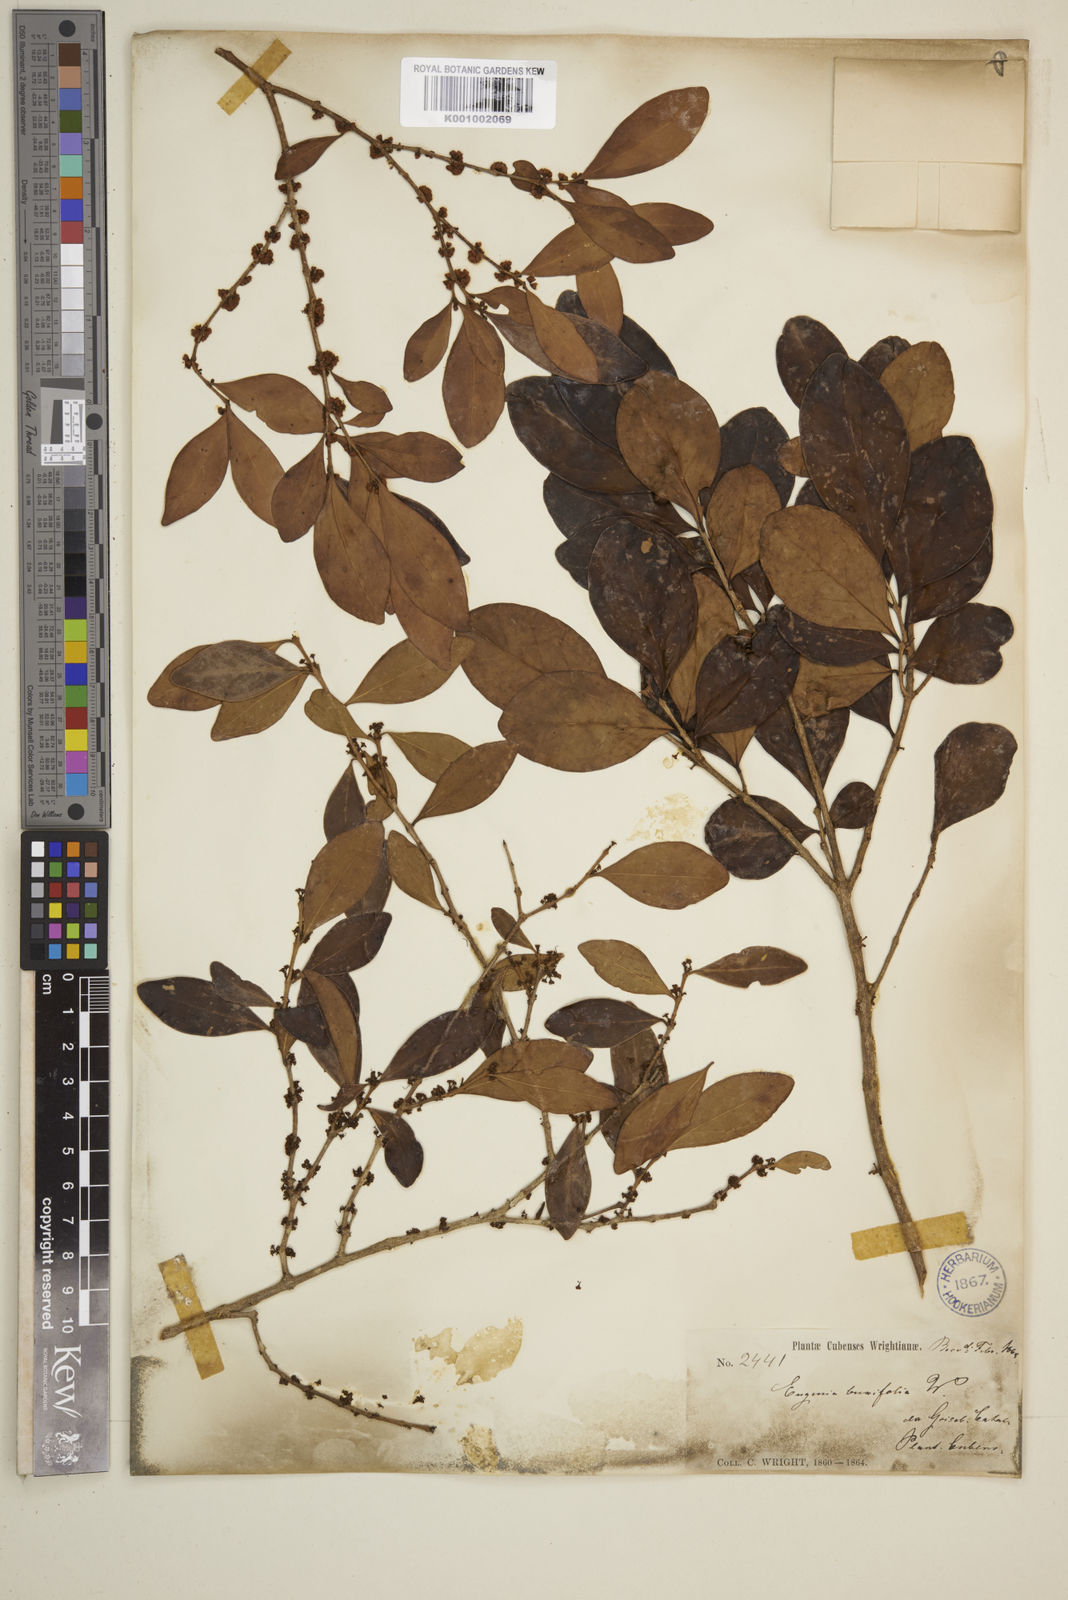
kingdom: Plantae
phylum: Tracheophyta
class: Magnoliopsida
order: Myrtales
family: Myrtaceae
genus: Eugenia
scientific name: Eugenia buxifolia
